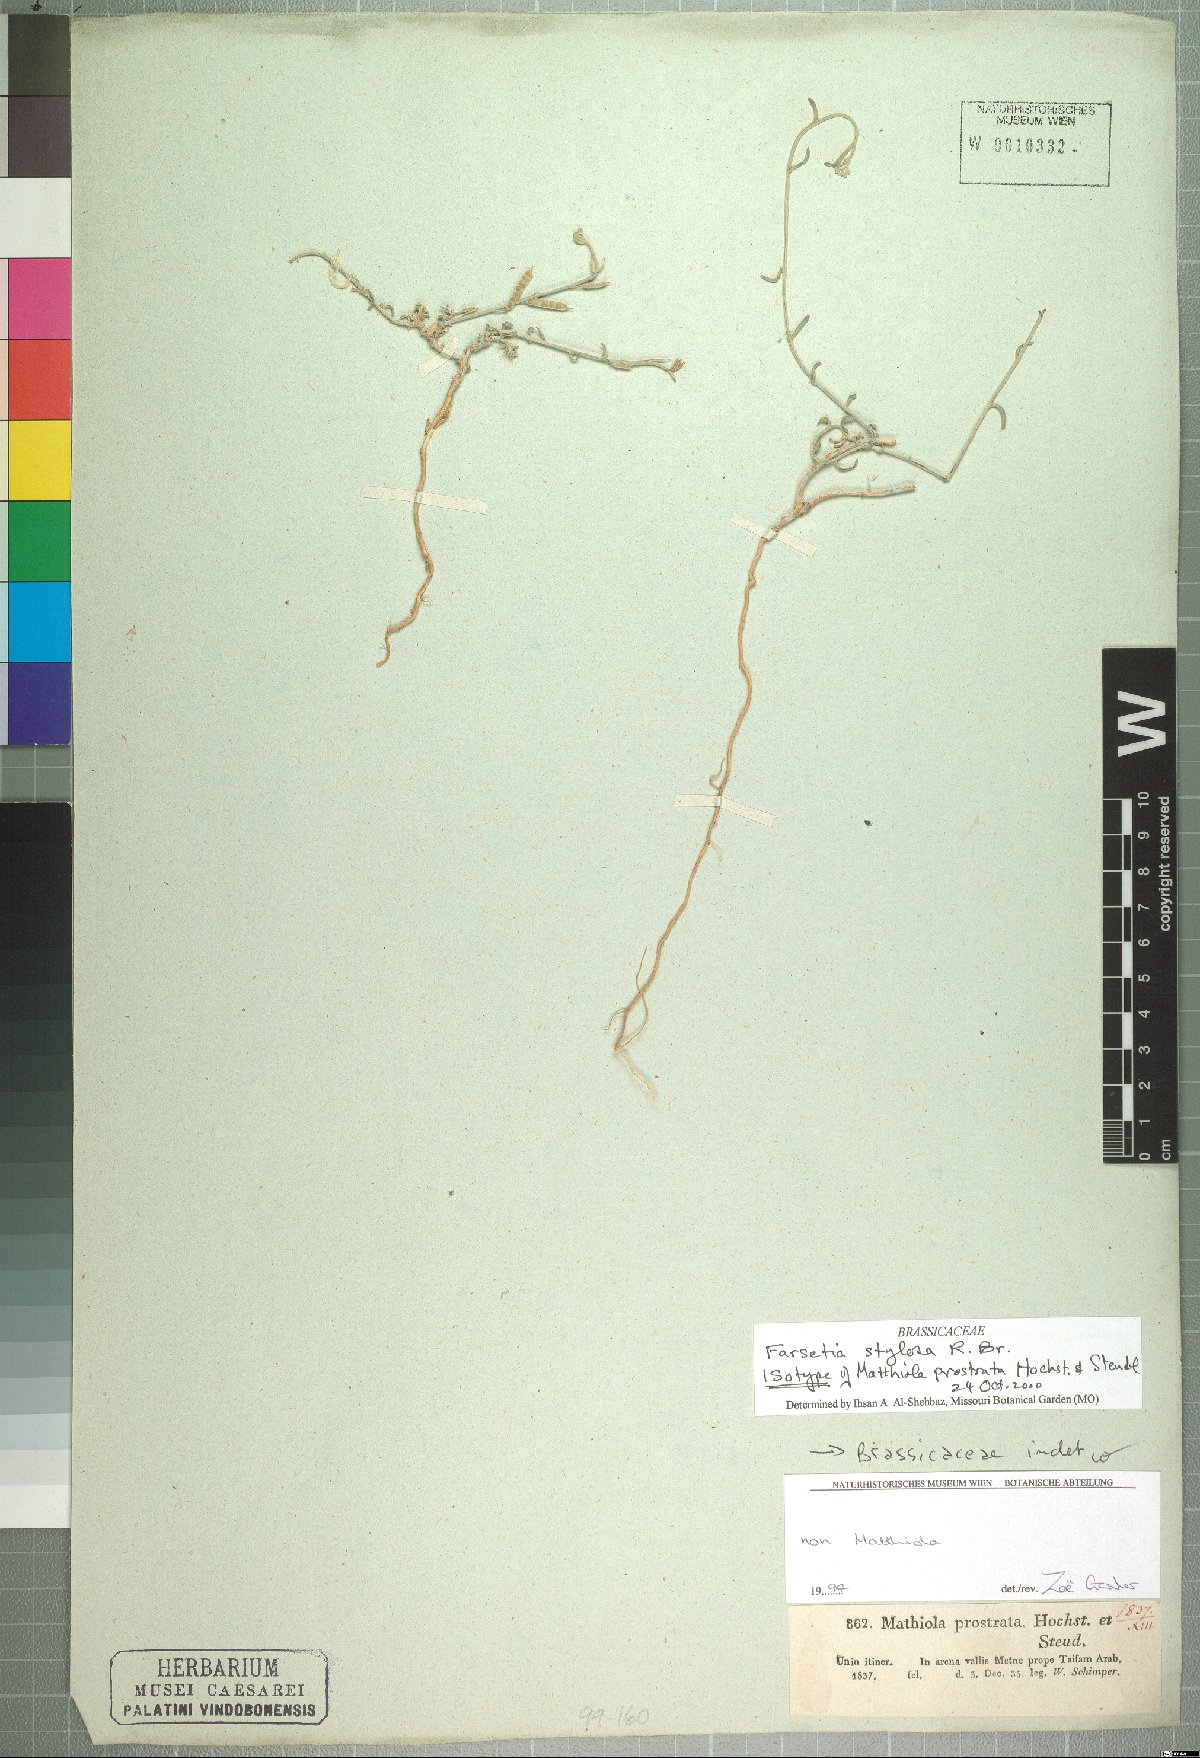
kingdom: Plantae
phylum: Tracheophyta
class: Magnoliopsida
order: Brassicales
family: Brassicaceae
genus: Farsetia
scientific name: Farsetia stylosa
